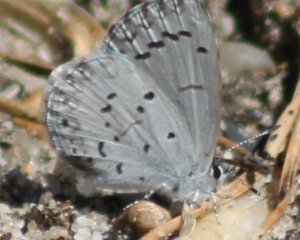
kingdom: Animalia
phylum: Arthropoda
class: Insecta
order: Lepidoptera
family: Lycaenidae
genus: Celastrina
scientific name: Celastrina idella
